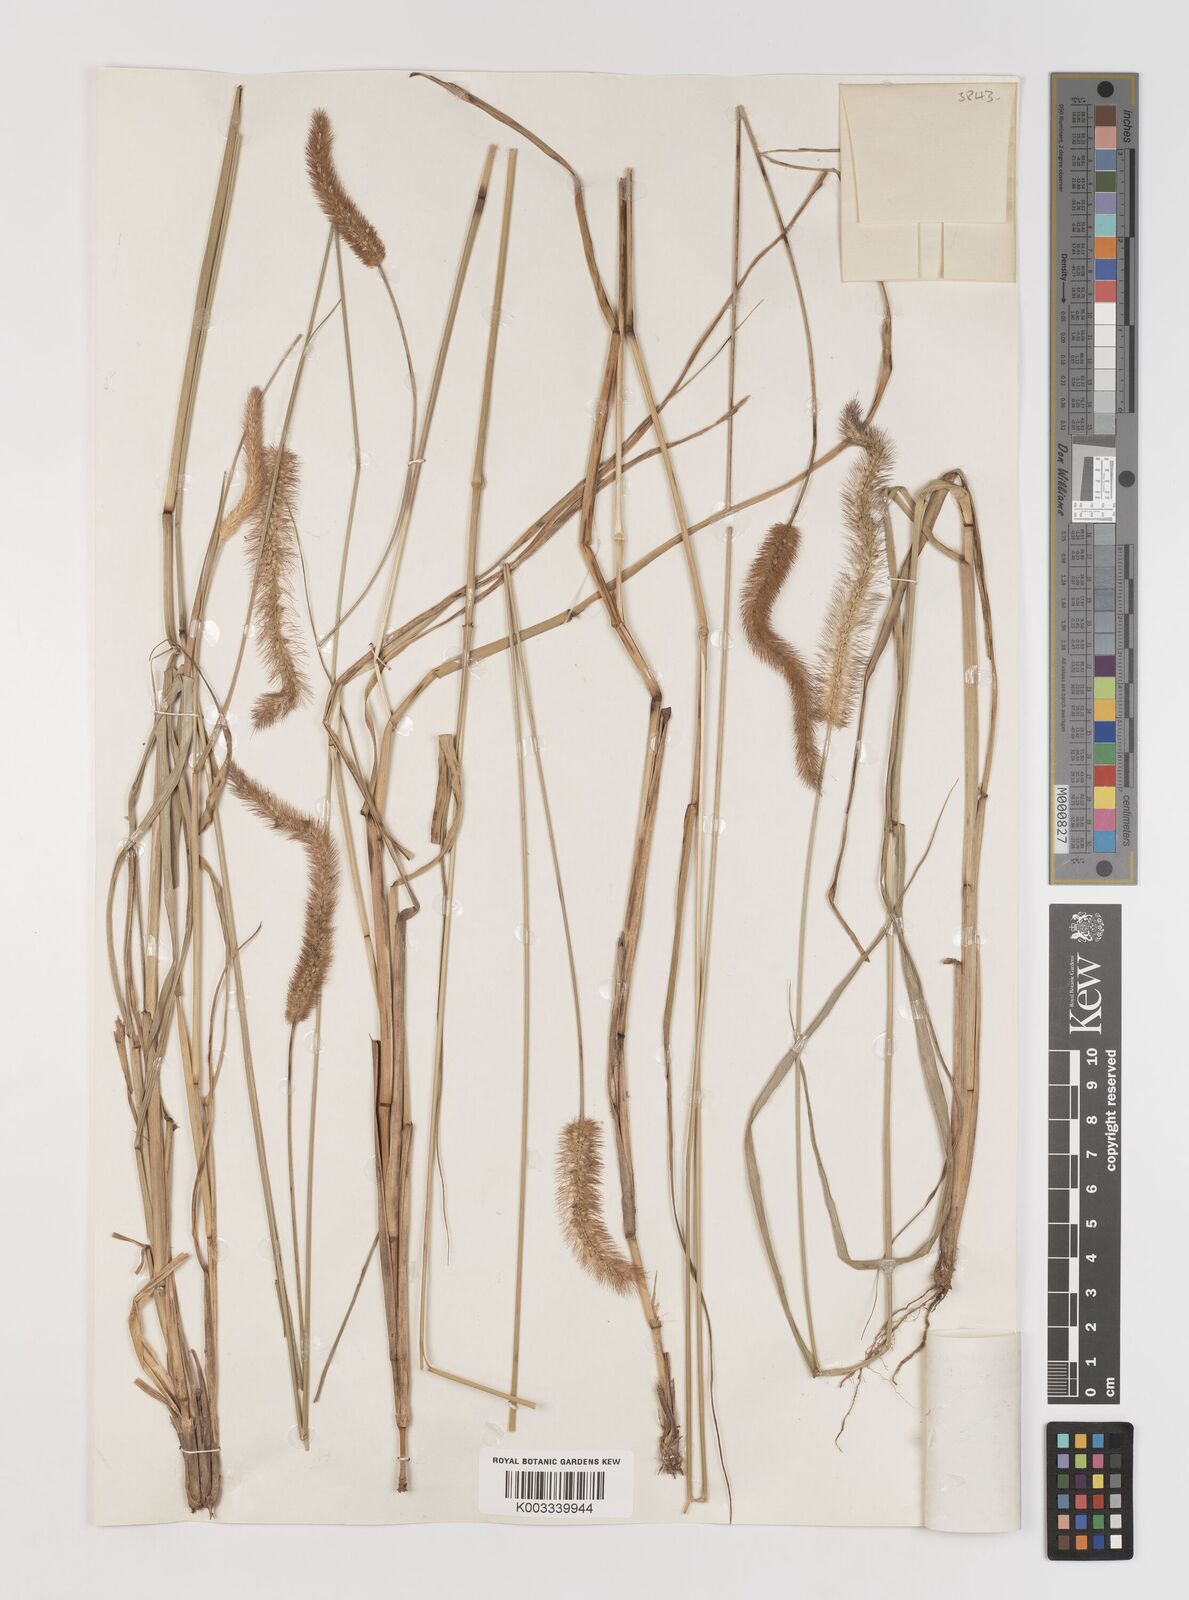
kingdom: Plantae
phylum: Tracheophyta
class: Liliopsida
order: Poales
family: Poaceae
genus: Setaria
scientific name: Setaria parviflora
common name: Knotroot bristle-grass
